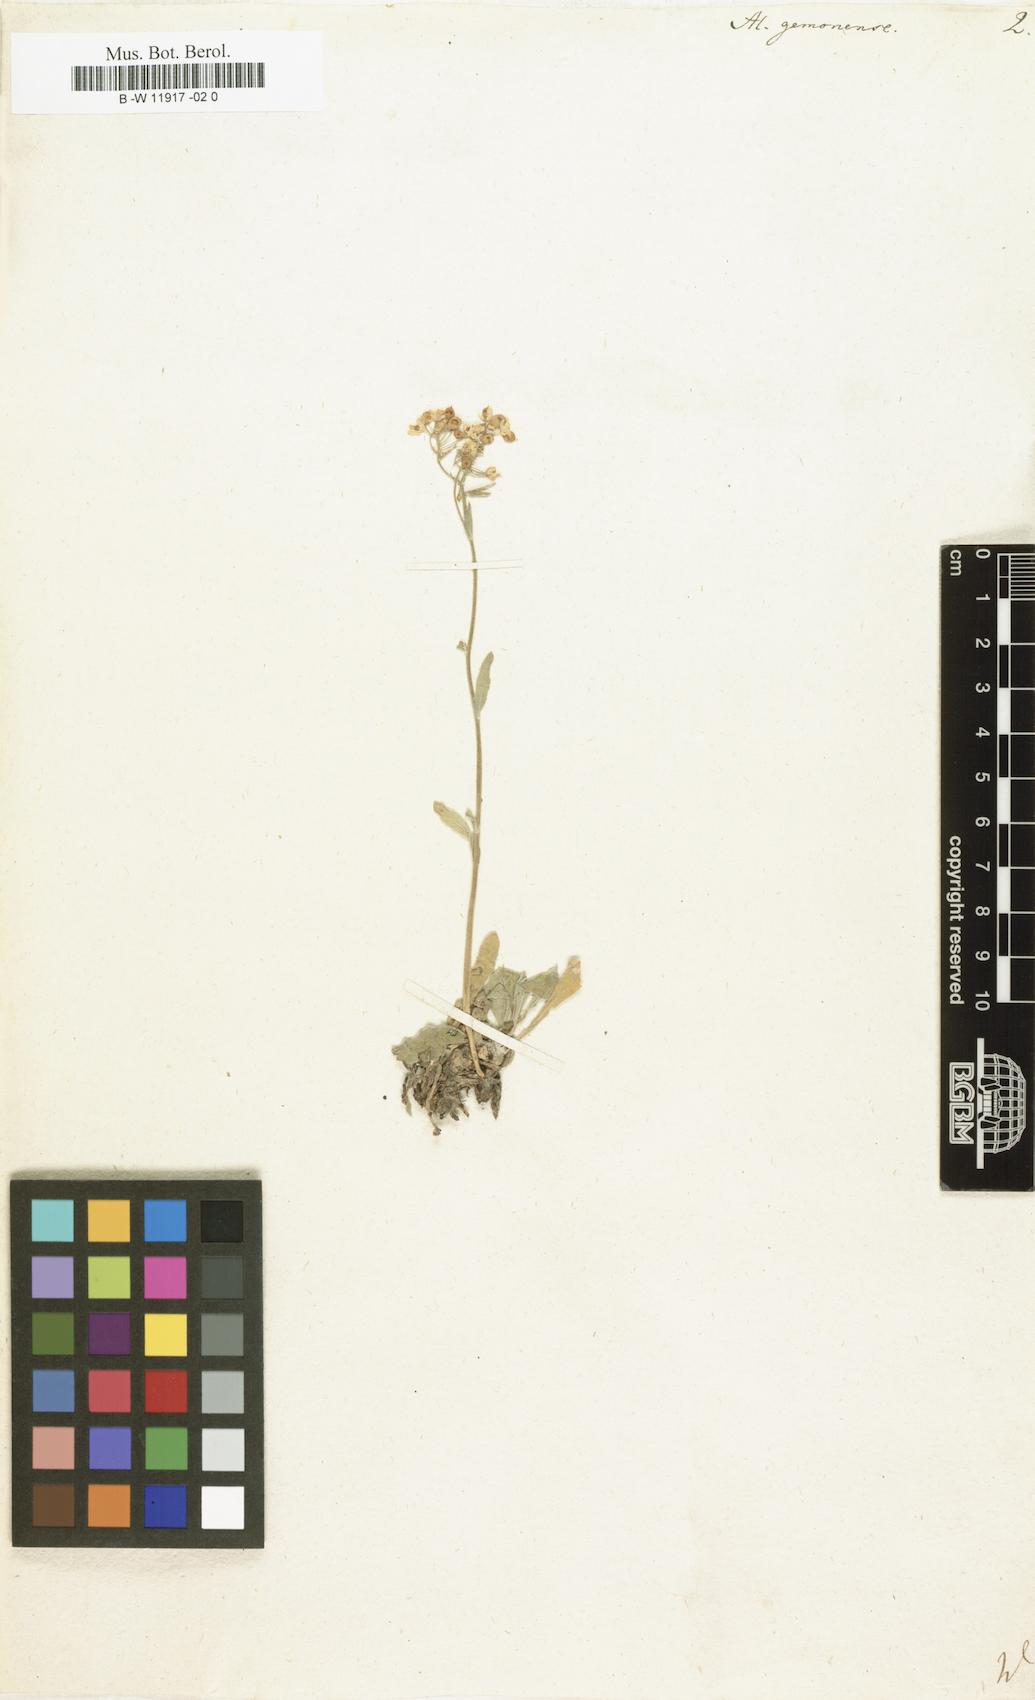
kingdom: Plantae
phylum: Tracheophyta
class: Magnoliopsida
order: Brassicales
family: Brassicaceae
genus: Aurinia
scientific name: Aurinia petraea
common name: Goldentuft
